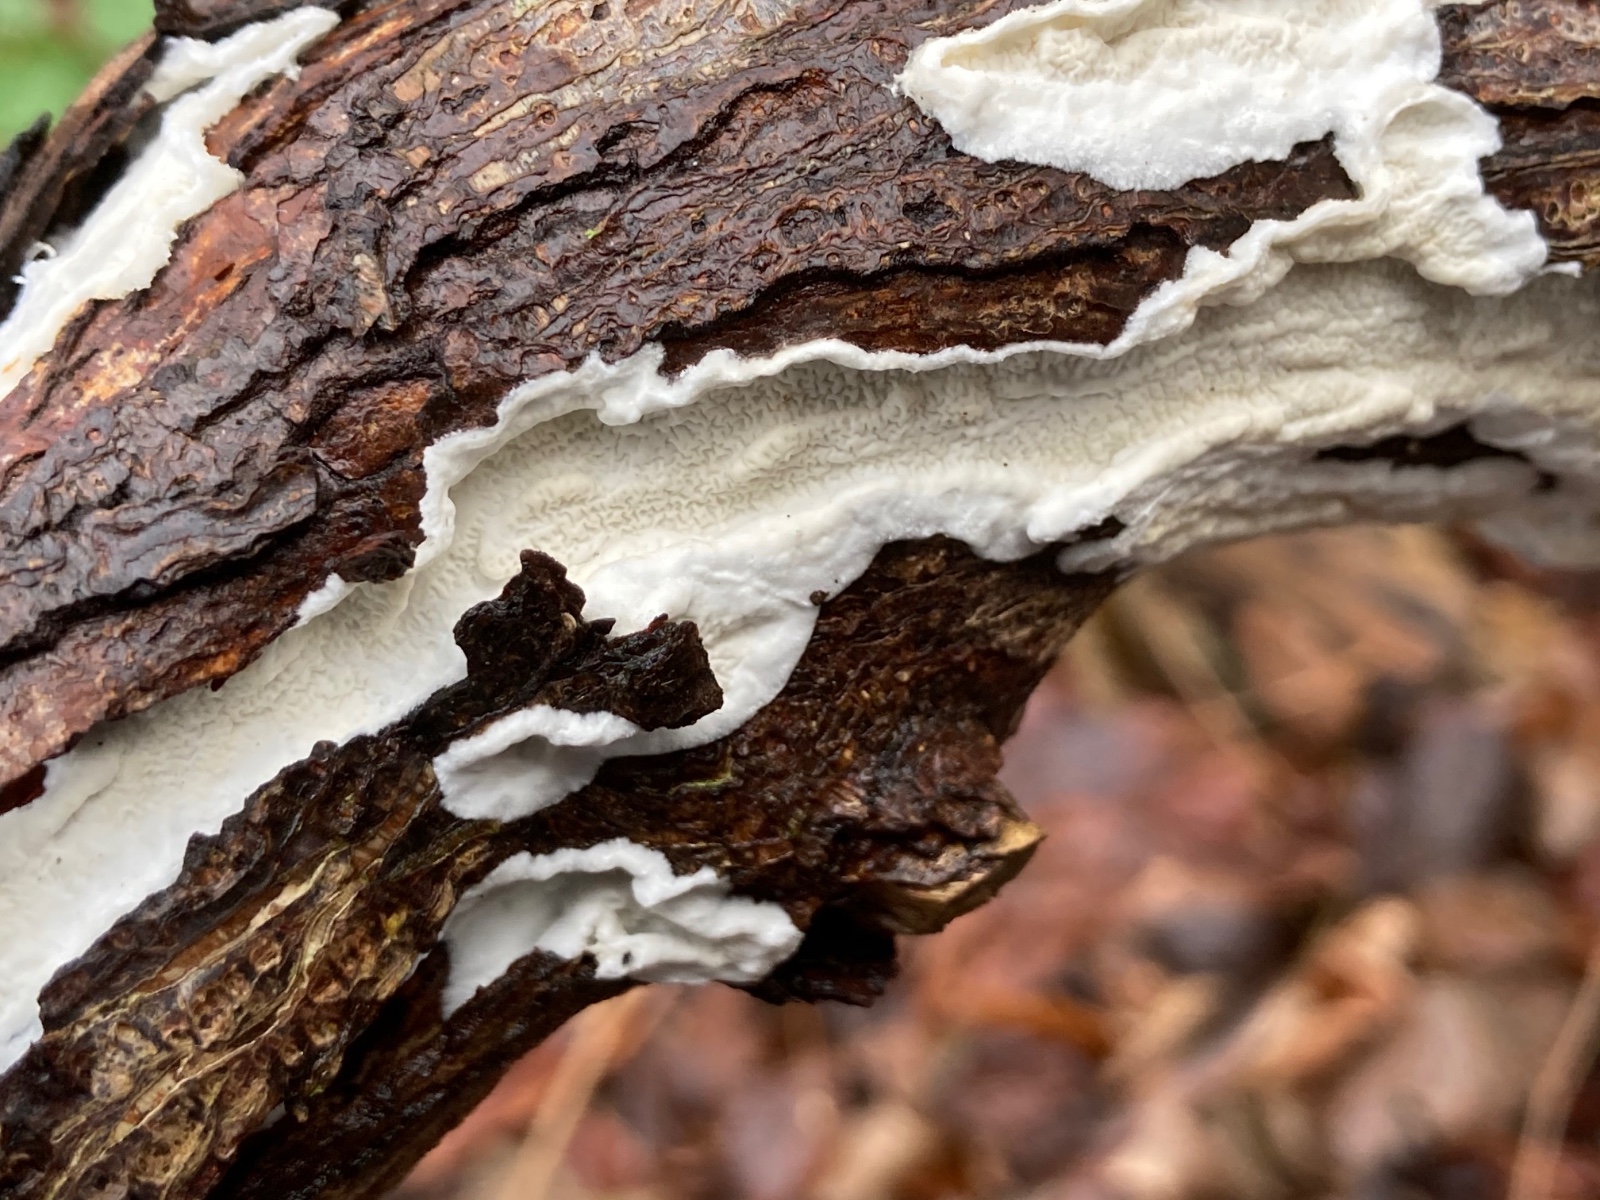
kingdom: Fungi
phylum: Basidiomycota
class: Agaricomycetes
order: Polyporales
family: Irpicaceae
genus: Byssomerulius
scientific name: Byssomerulius corium
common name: læder-åresvamp
